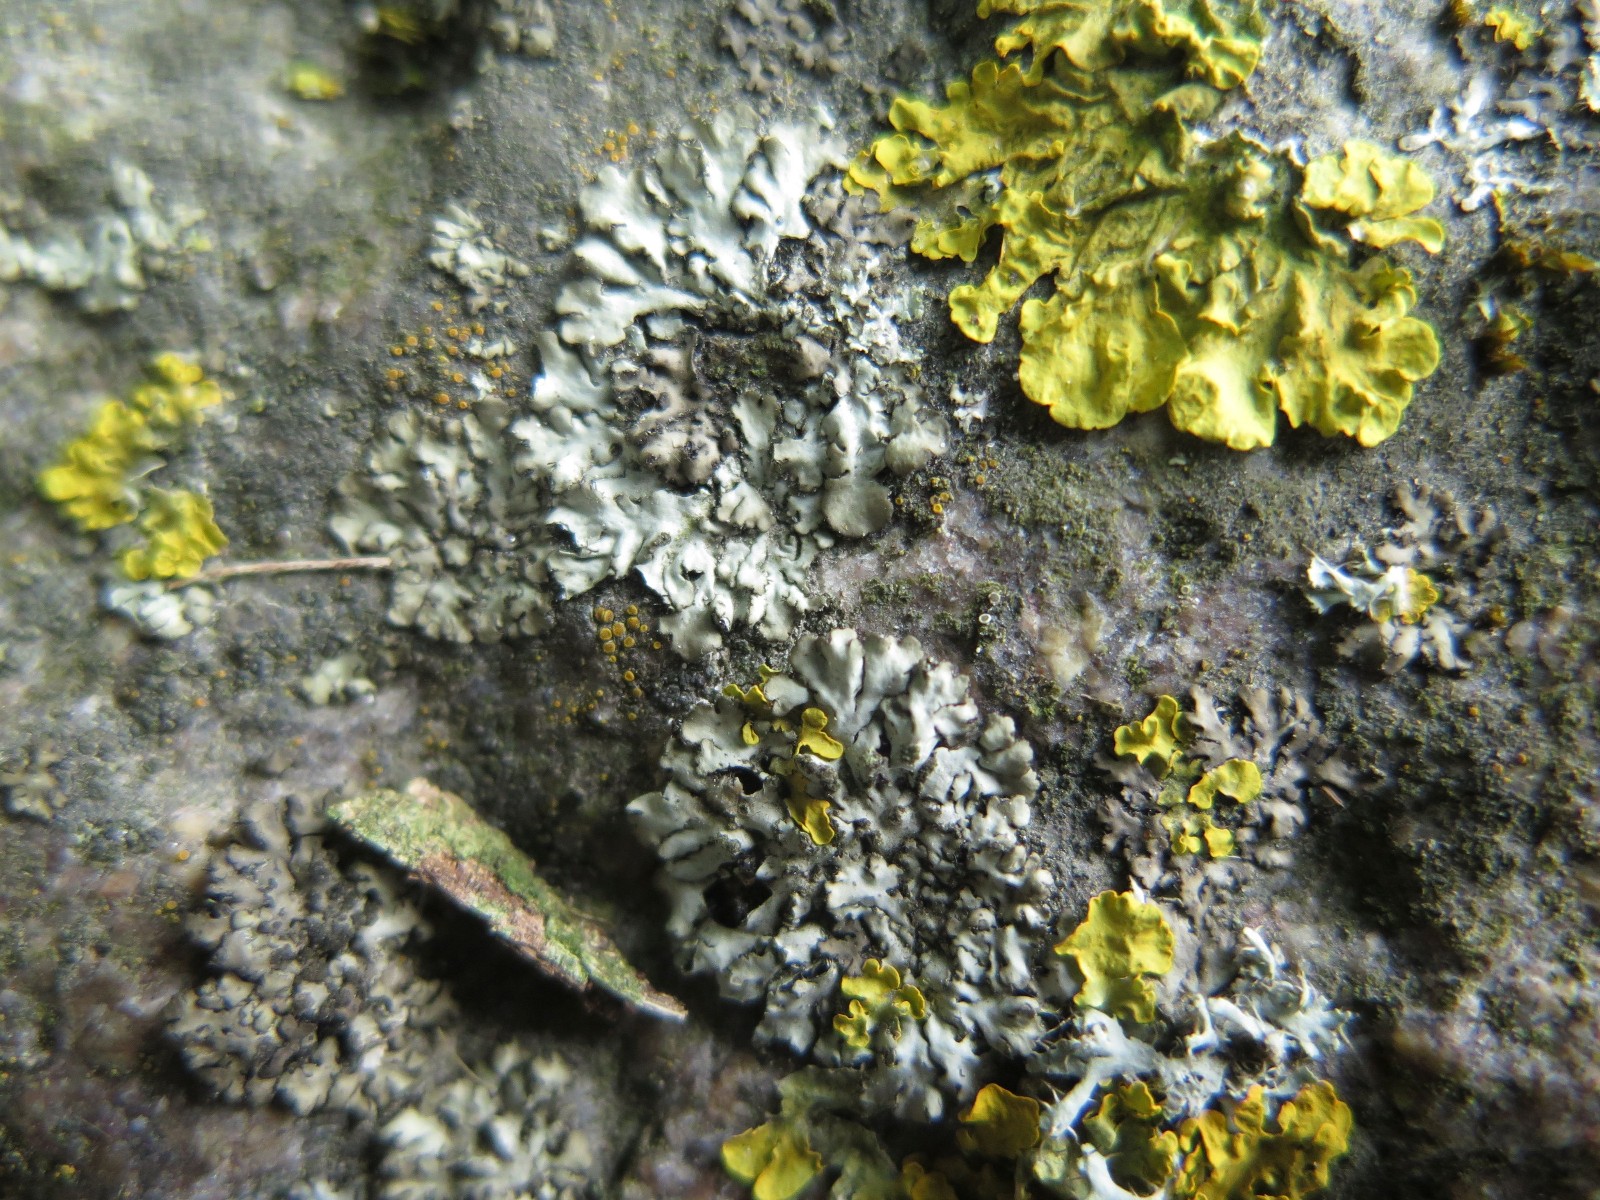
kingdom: Fungi
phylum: Ascomycota
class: Lecanoromycetes
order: Caliciales
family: Physciaceae
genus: Phaeophyscia
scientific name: Phaeophyscia orbicularis
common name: grågrøn rosetlav
